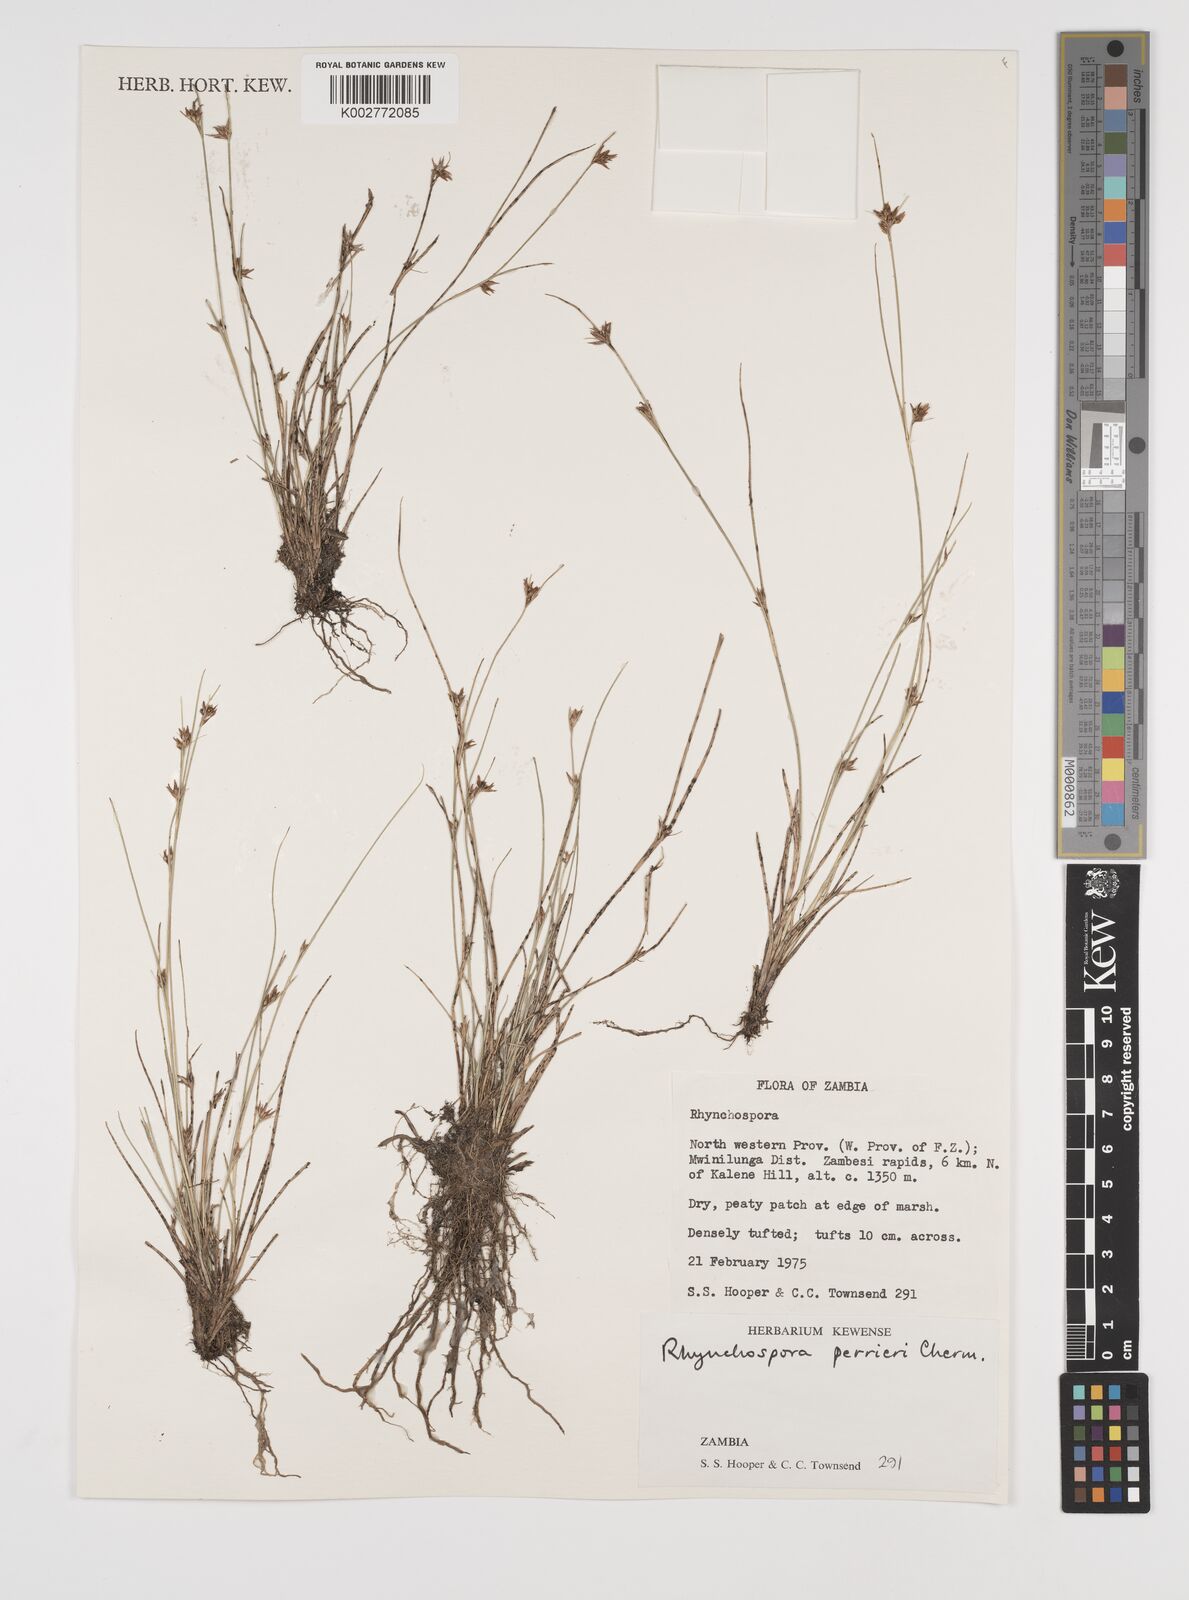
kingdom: Plantae
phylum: Tracheophyta
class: Liliopsida
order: Poales
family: Cyperaceae
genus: Rhynchospora
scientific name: Rhynchospora perrieri
